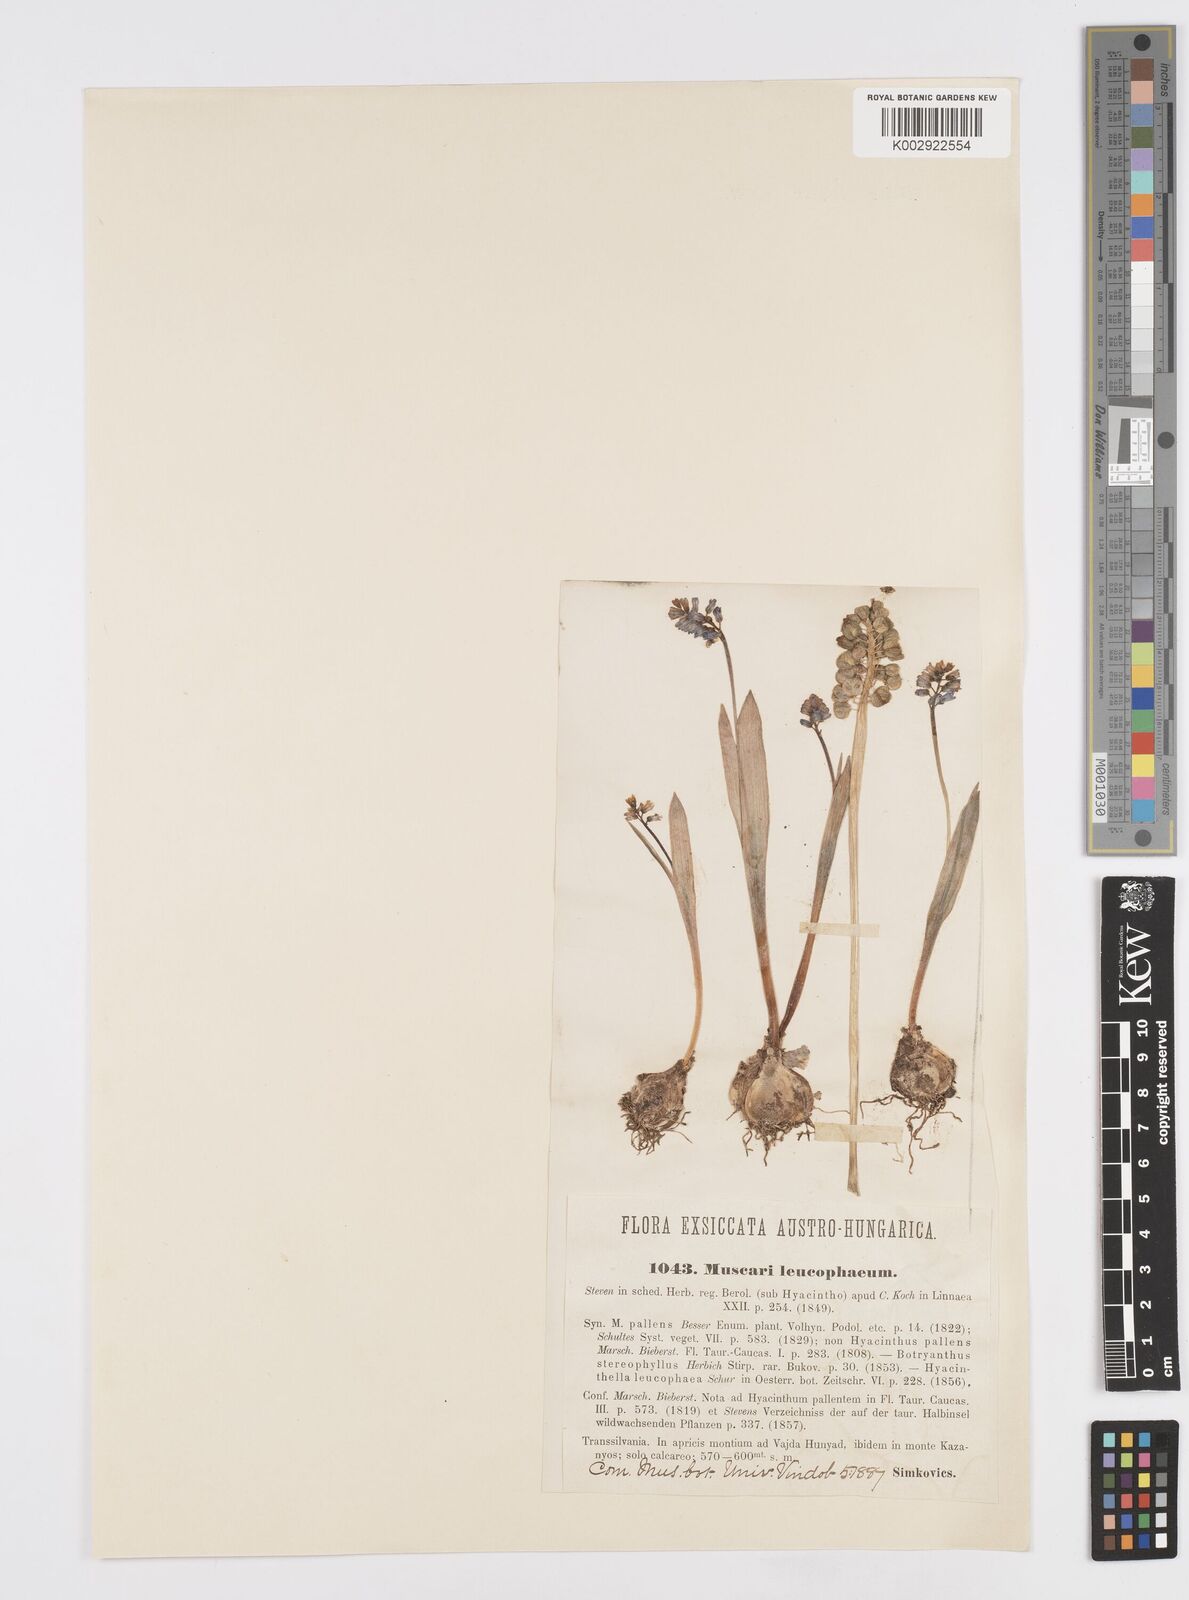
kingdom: Plantae
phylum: Tracheophyta
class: Liliopsida
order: Asparagales
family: Asparagaceae
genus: Hyacinthella
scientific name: Hyacinthella leucophaea
